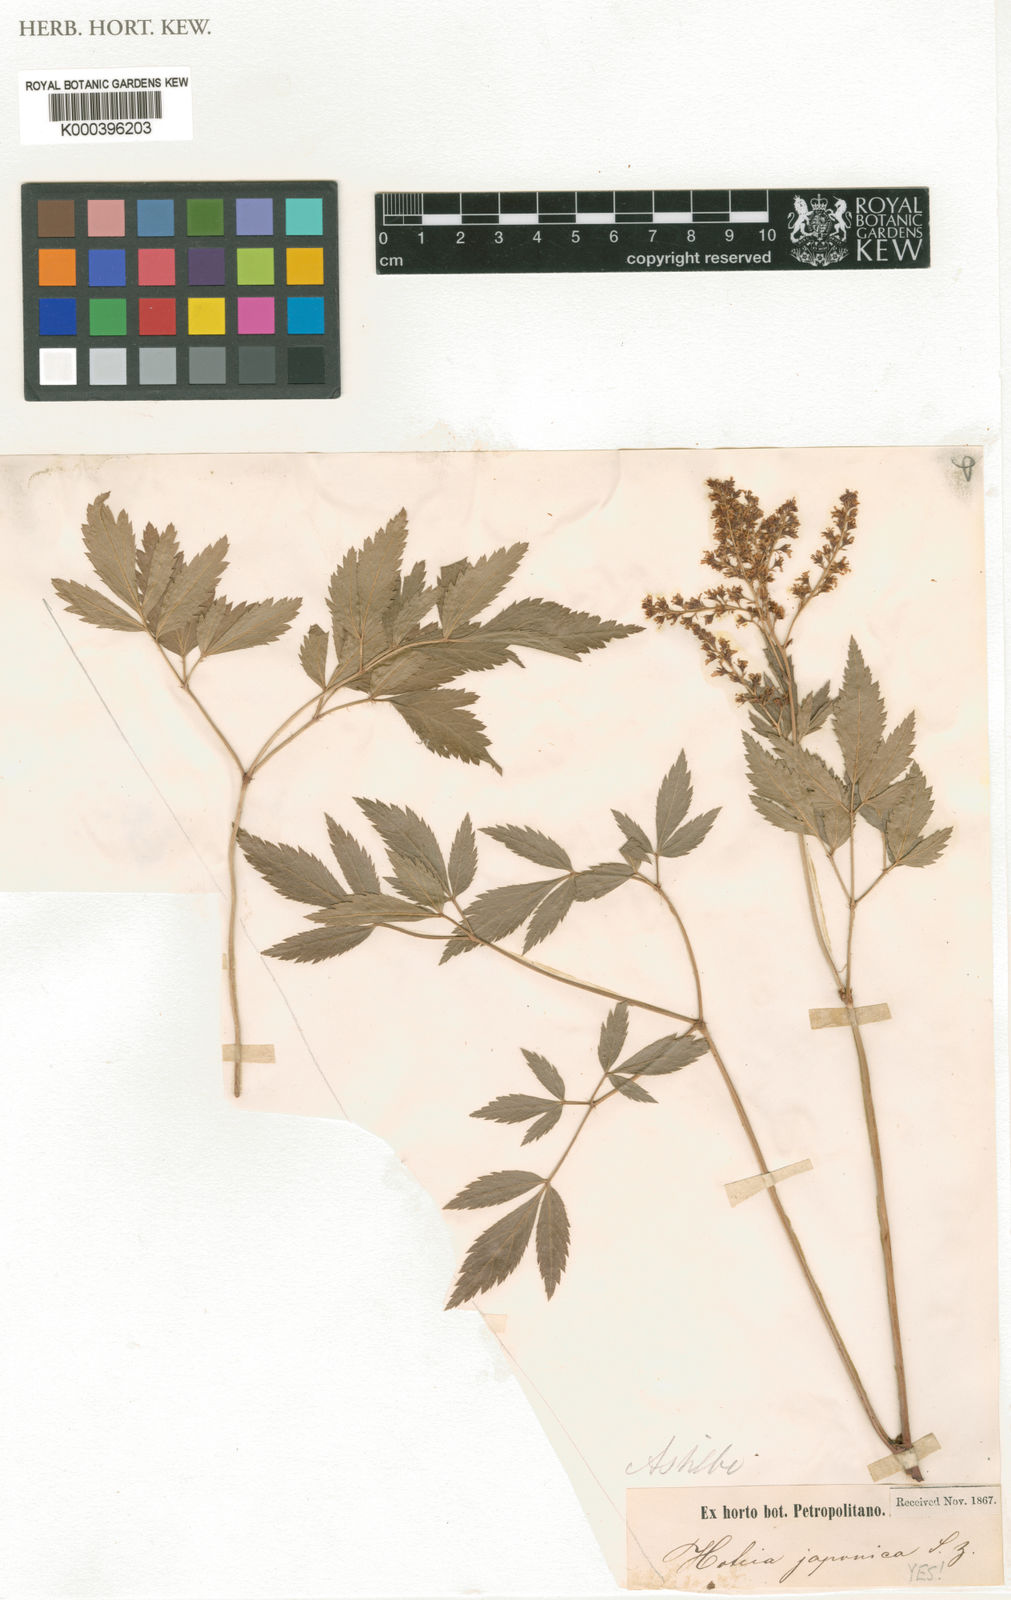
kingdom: Plantae
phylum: Tracheophyta
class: Magnoliopsida
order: Saxifragales
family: Saxifragaceae
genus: Astilbe
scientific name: Astilbe japonica
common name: False buck's-beard
